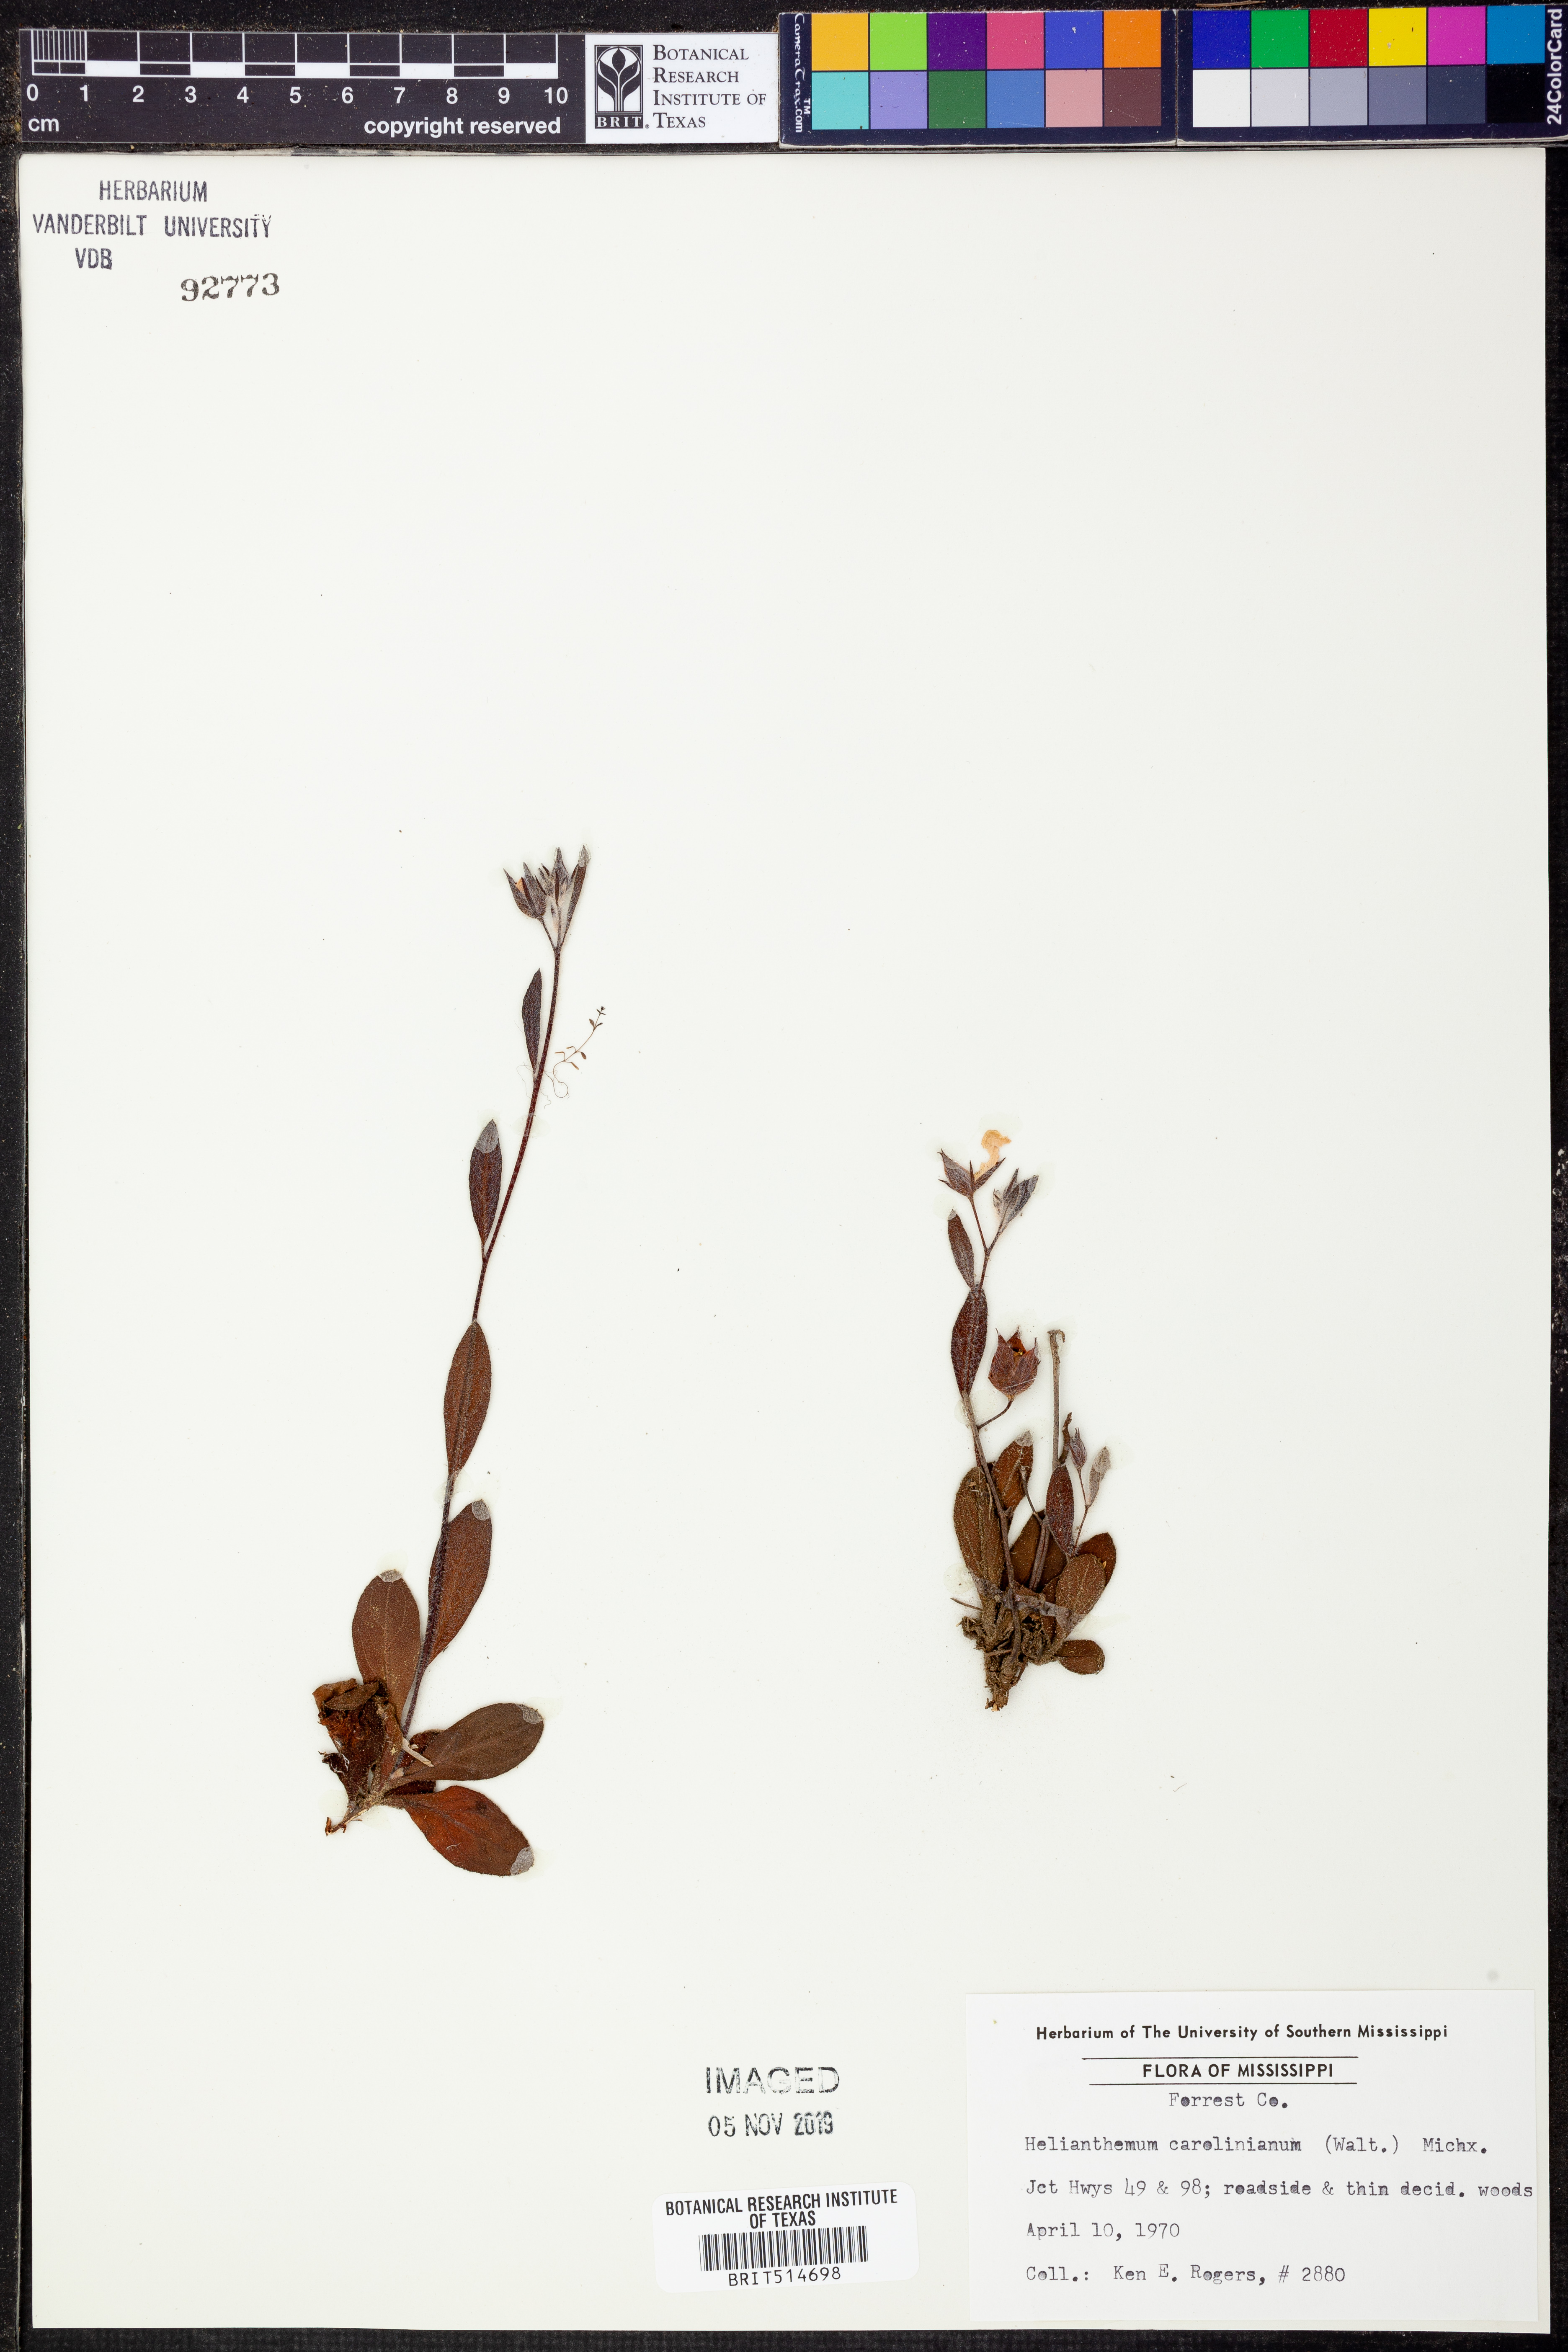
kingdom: Plantae
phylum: Tracheophyta
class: Magnoliopsida
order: Malvales
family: Cistaceae
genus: Crocanthemum
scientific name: Crocanthemum carolinianum
